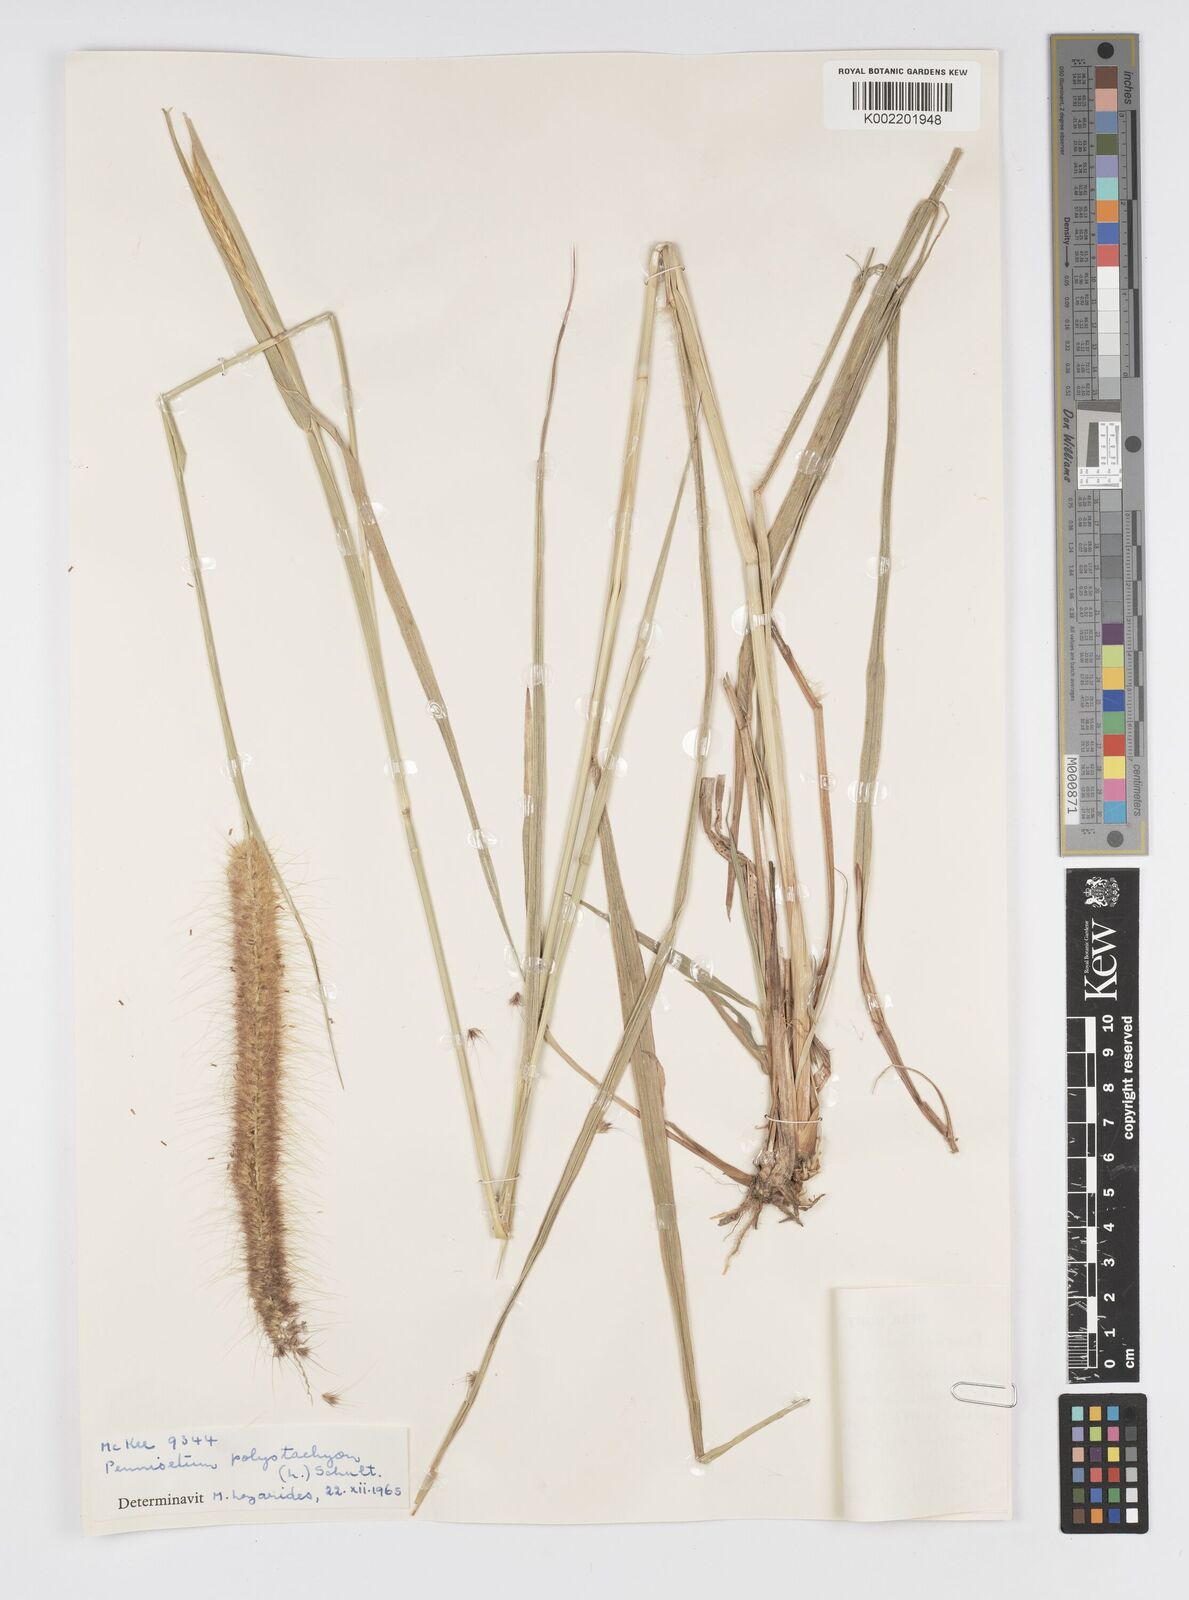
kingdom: Plantae
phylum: Tracheophyta
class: Liliopsida
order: Poales
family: Poaceae
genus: Setaria
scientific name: Setaria parviflora
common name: Knotroot bristle-grass
